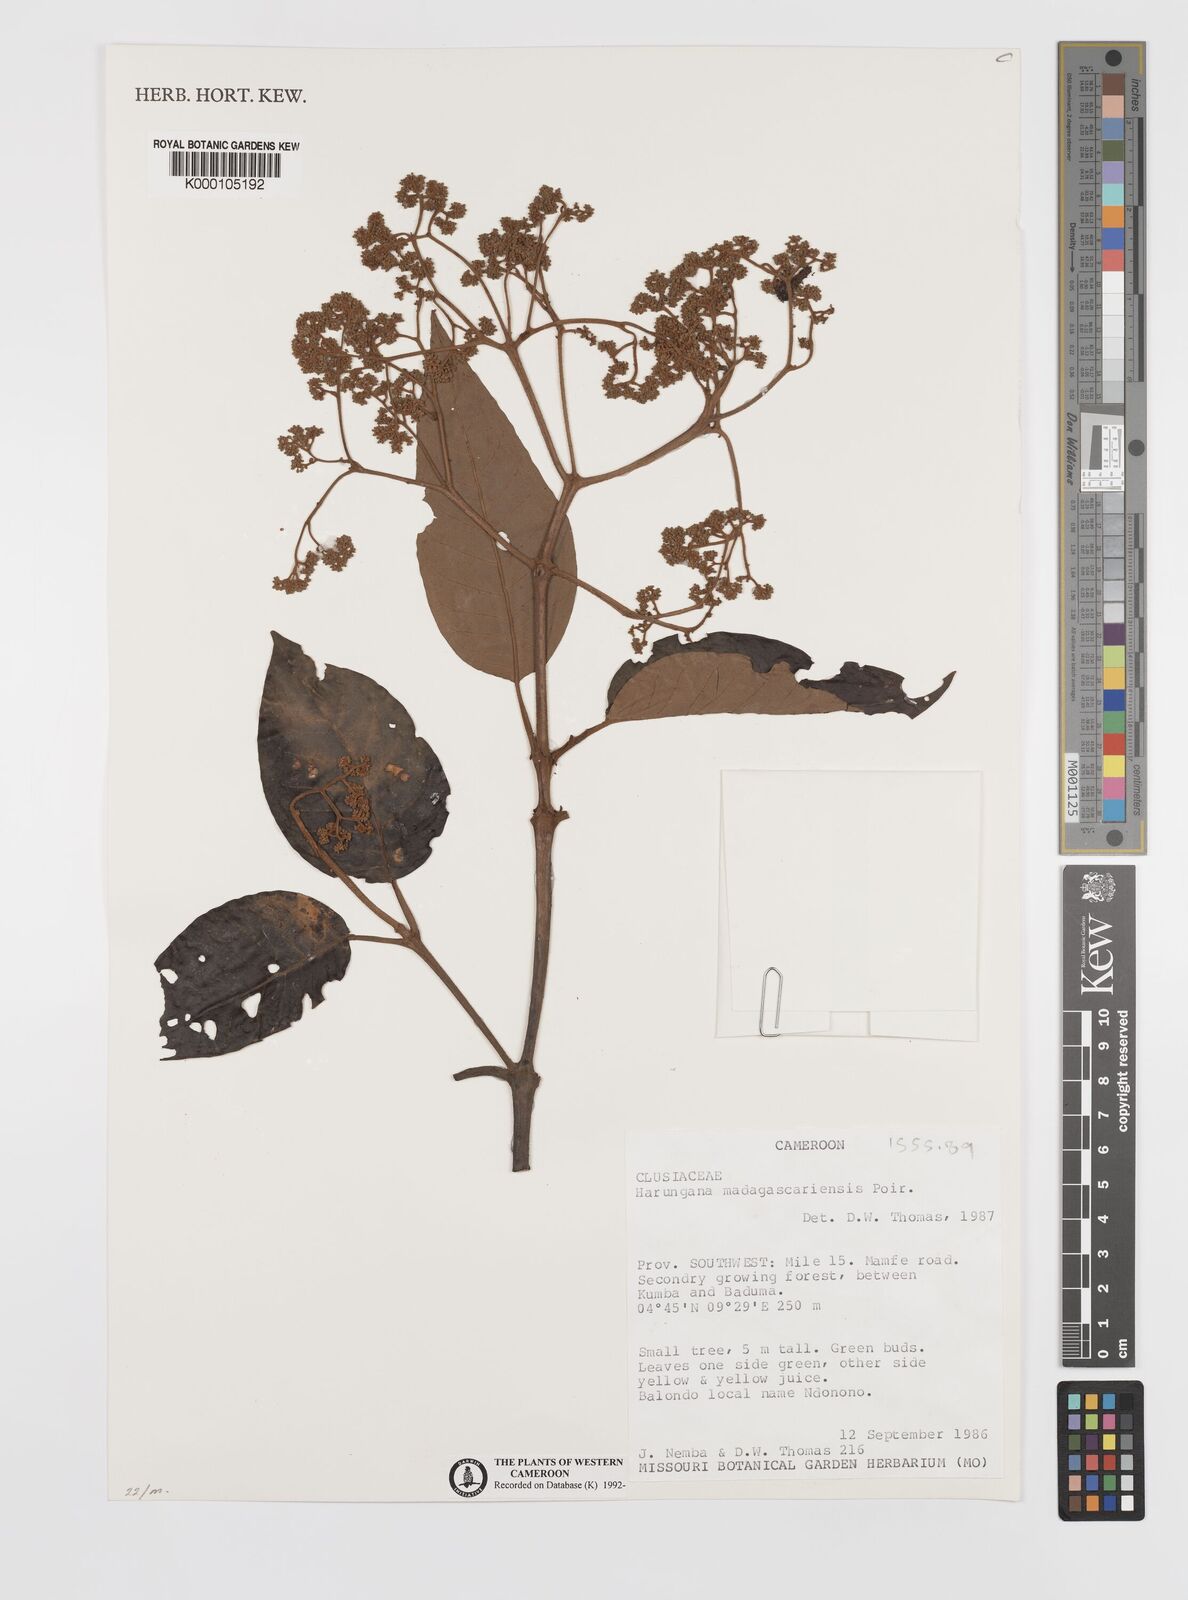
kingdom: Plantae
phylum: Tracheophyta
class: Magnoliopsida
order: Malpighiales
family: Hypericaceae
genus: Harungana
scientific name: Harungana madagascariensis
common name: Orange milktree
